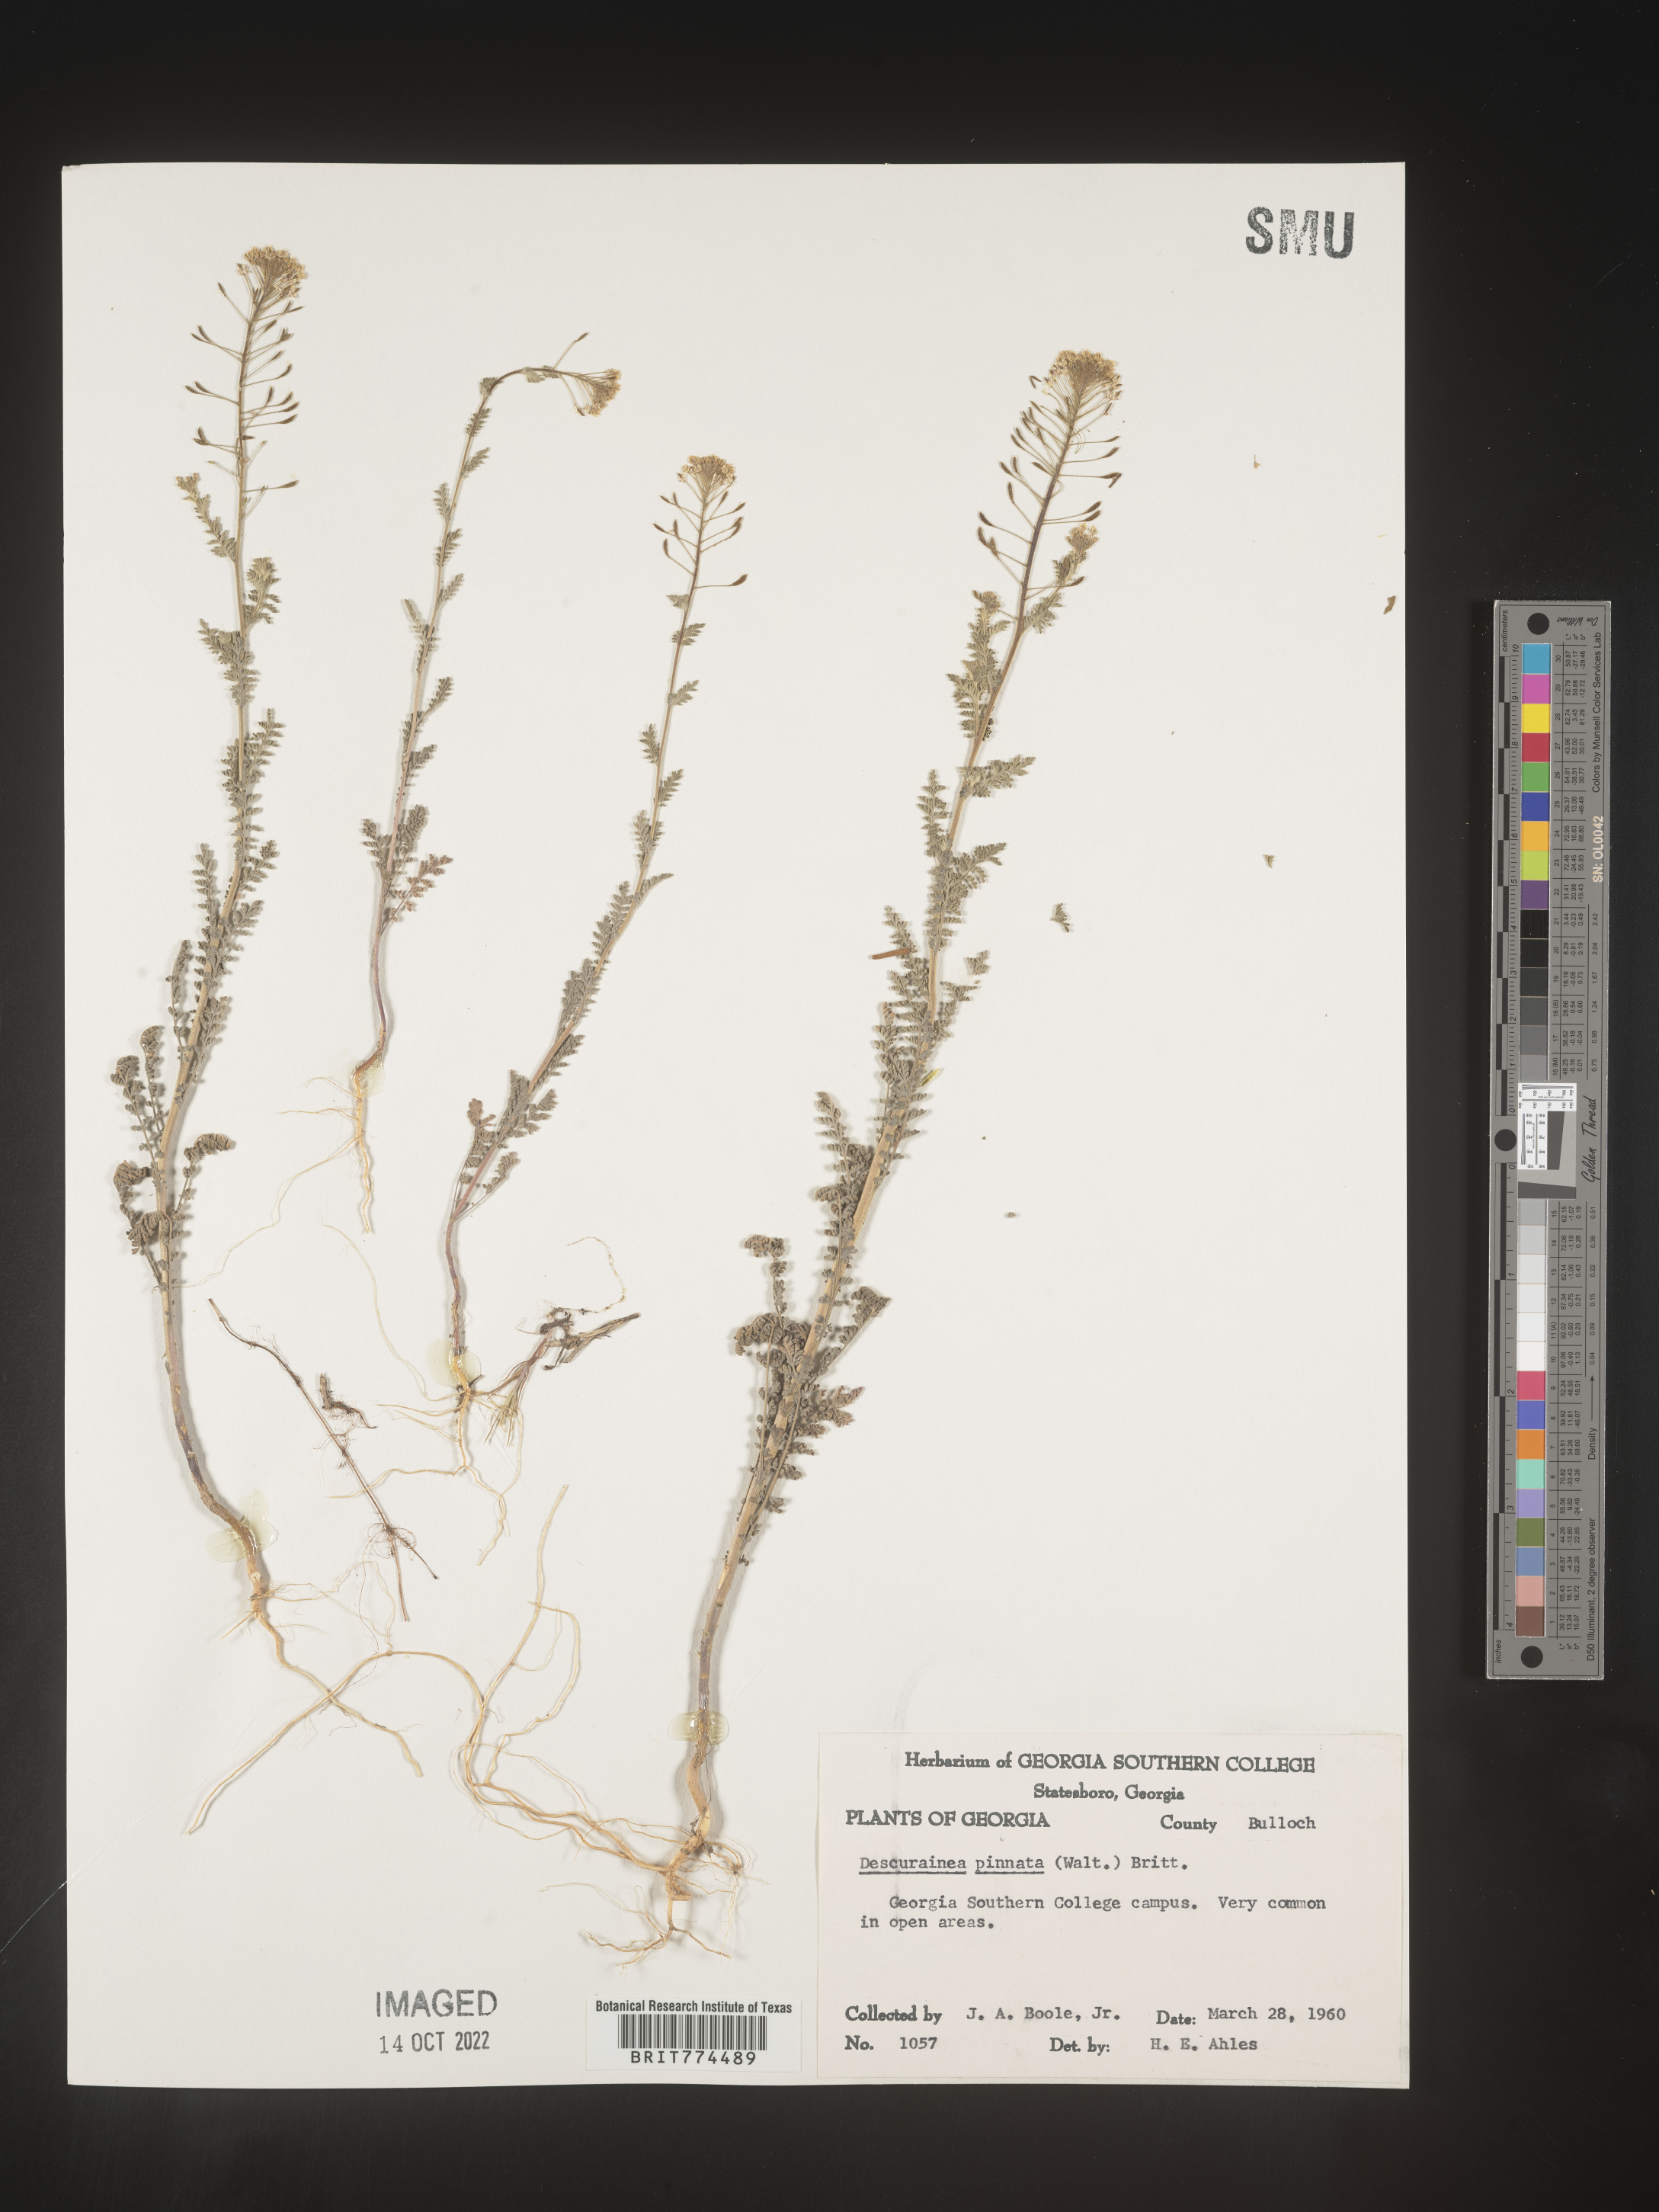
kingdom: Plantae
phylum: Tracheophyta
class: Magnoliopsida
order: Brassicales
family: Brassicaceae
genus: Descurainia
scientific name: Descurainia pinnata
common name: Western tansy mustard
